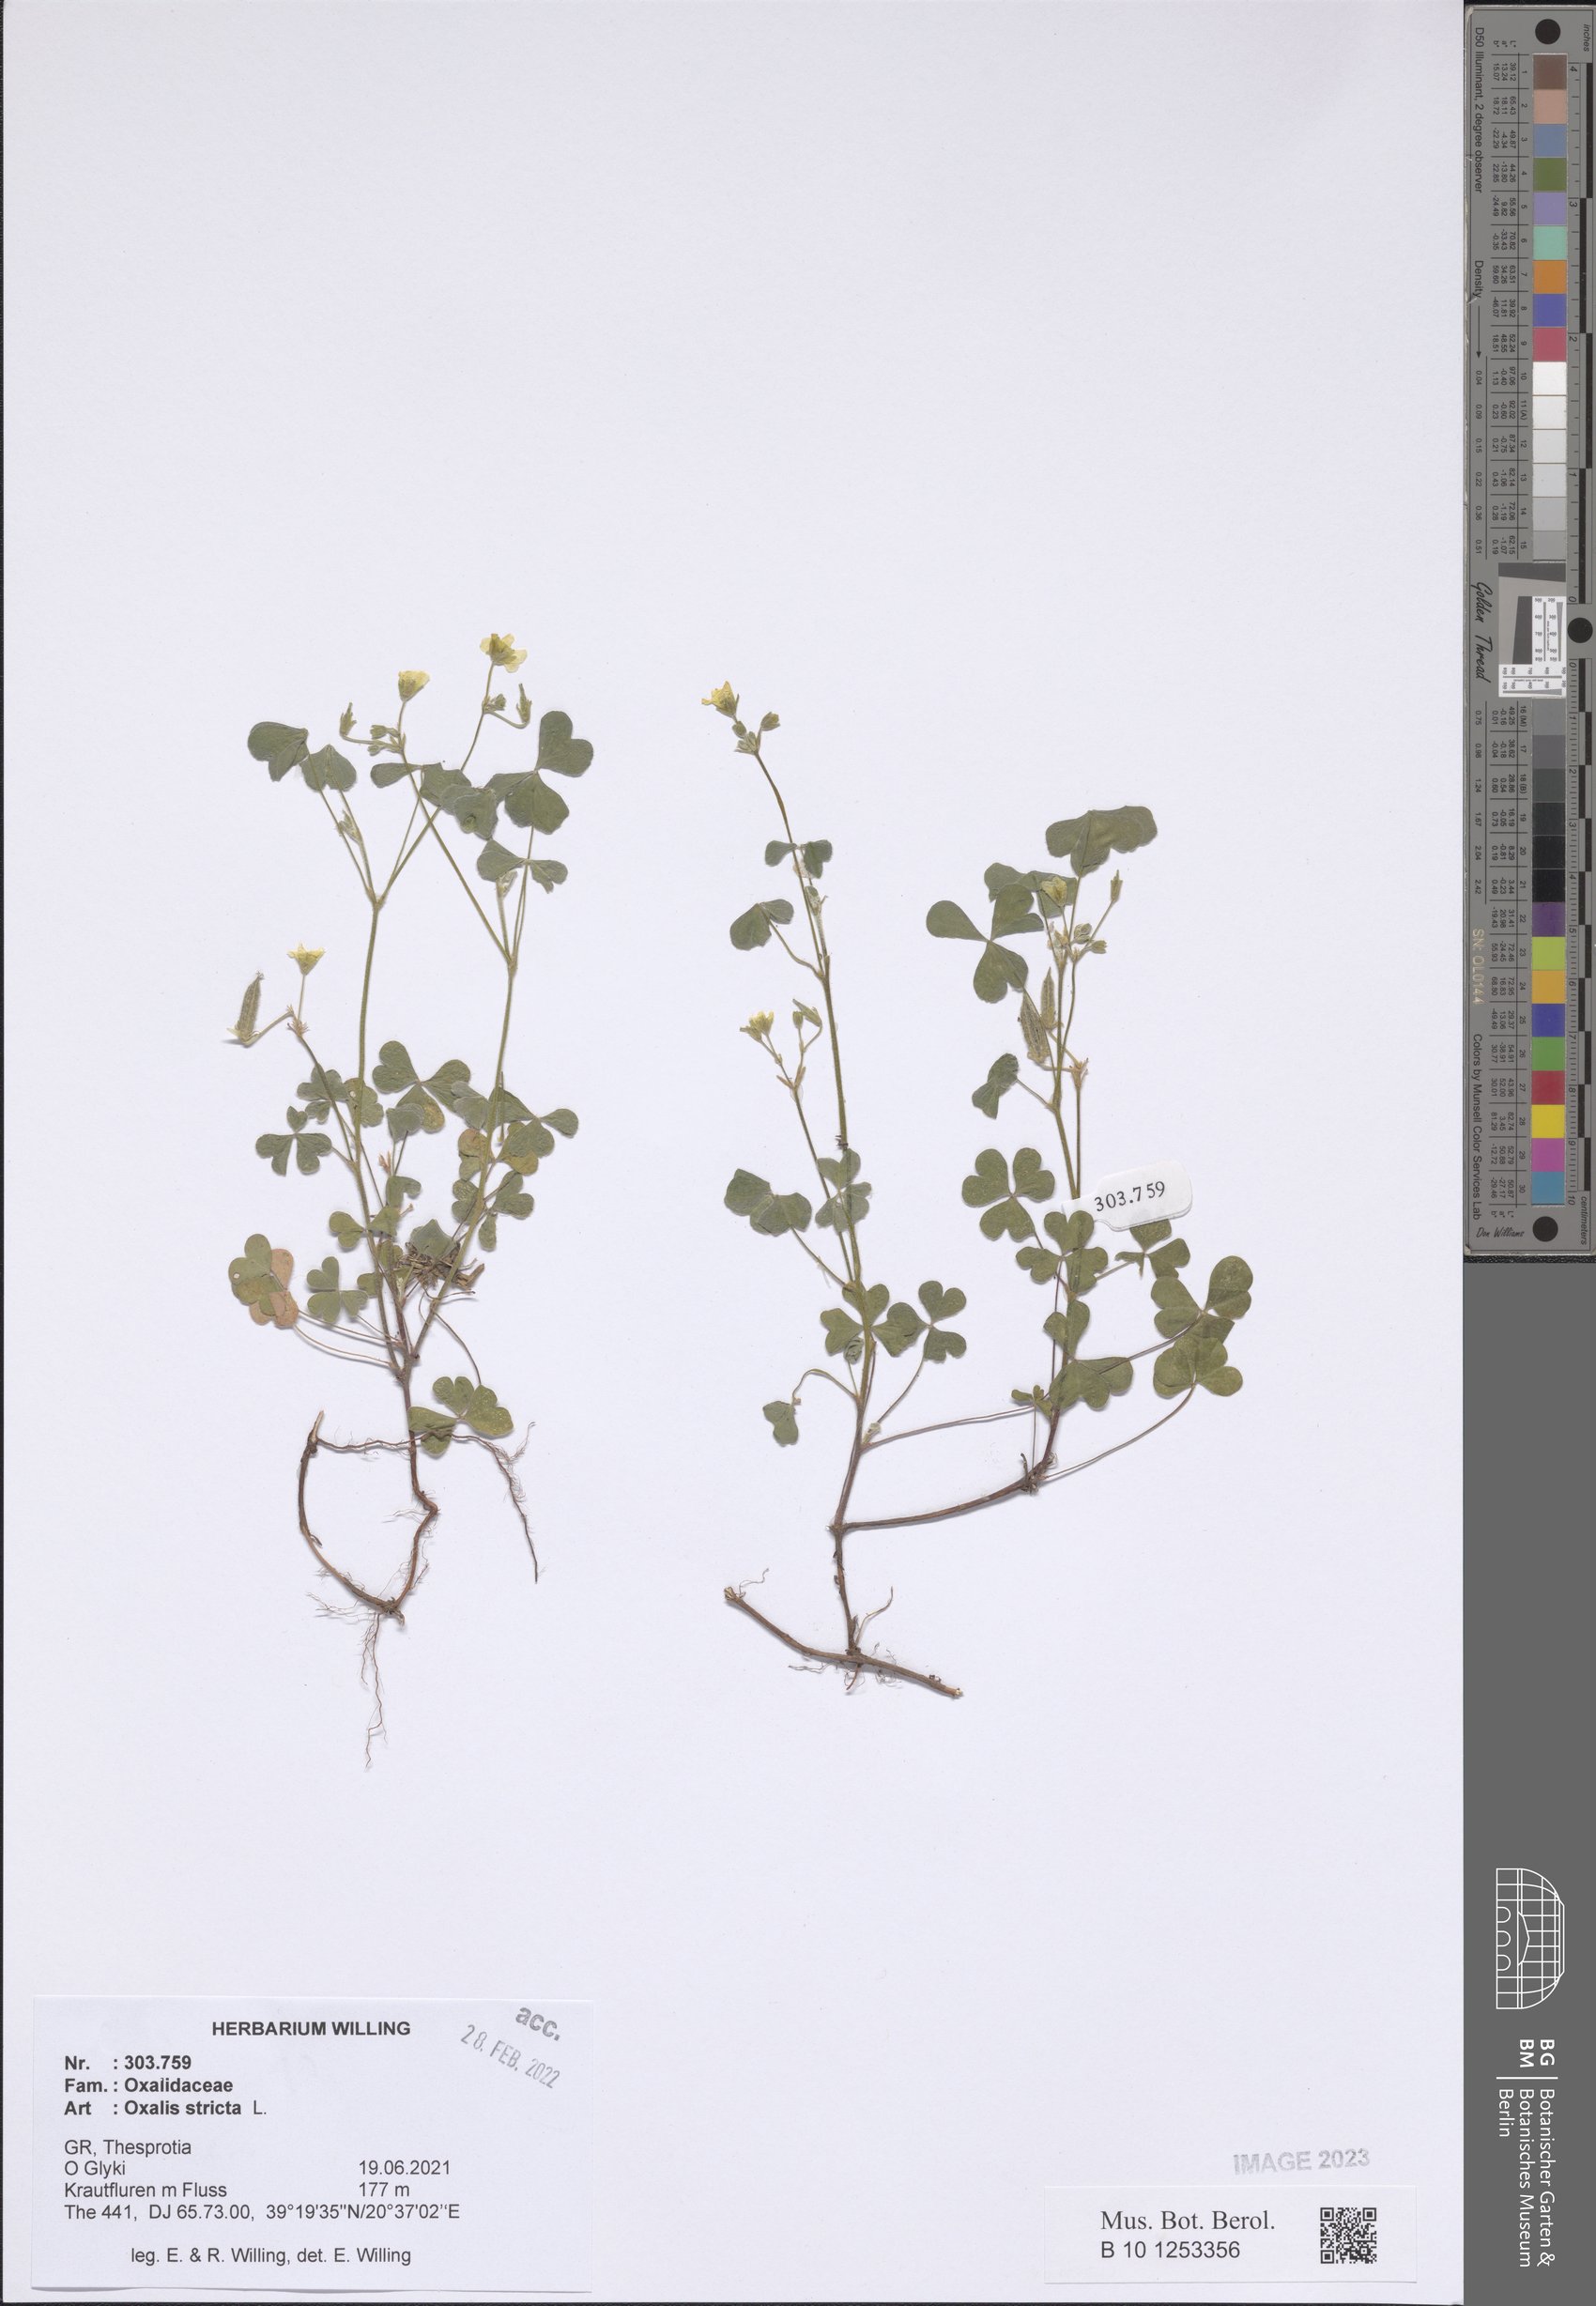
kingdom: Plantae
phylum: Tracheophyta
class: Magnoliopsida
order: Oxalidales
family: Oxalidaceae
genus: Oxalis
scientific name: Oxalis stricta
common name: Upright yellow-sorrel
